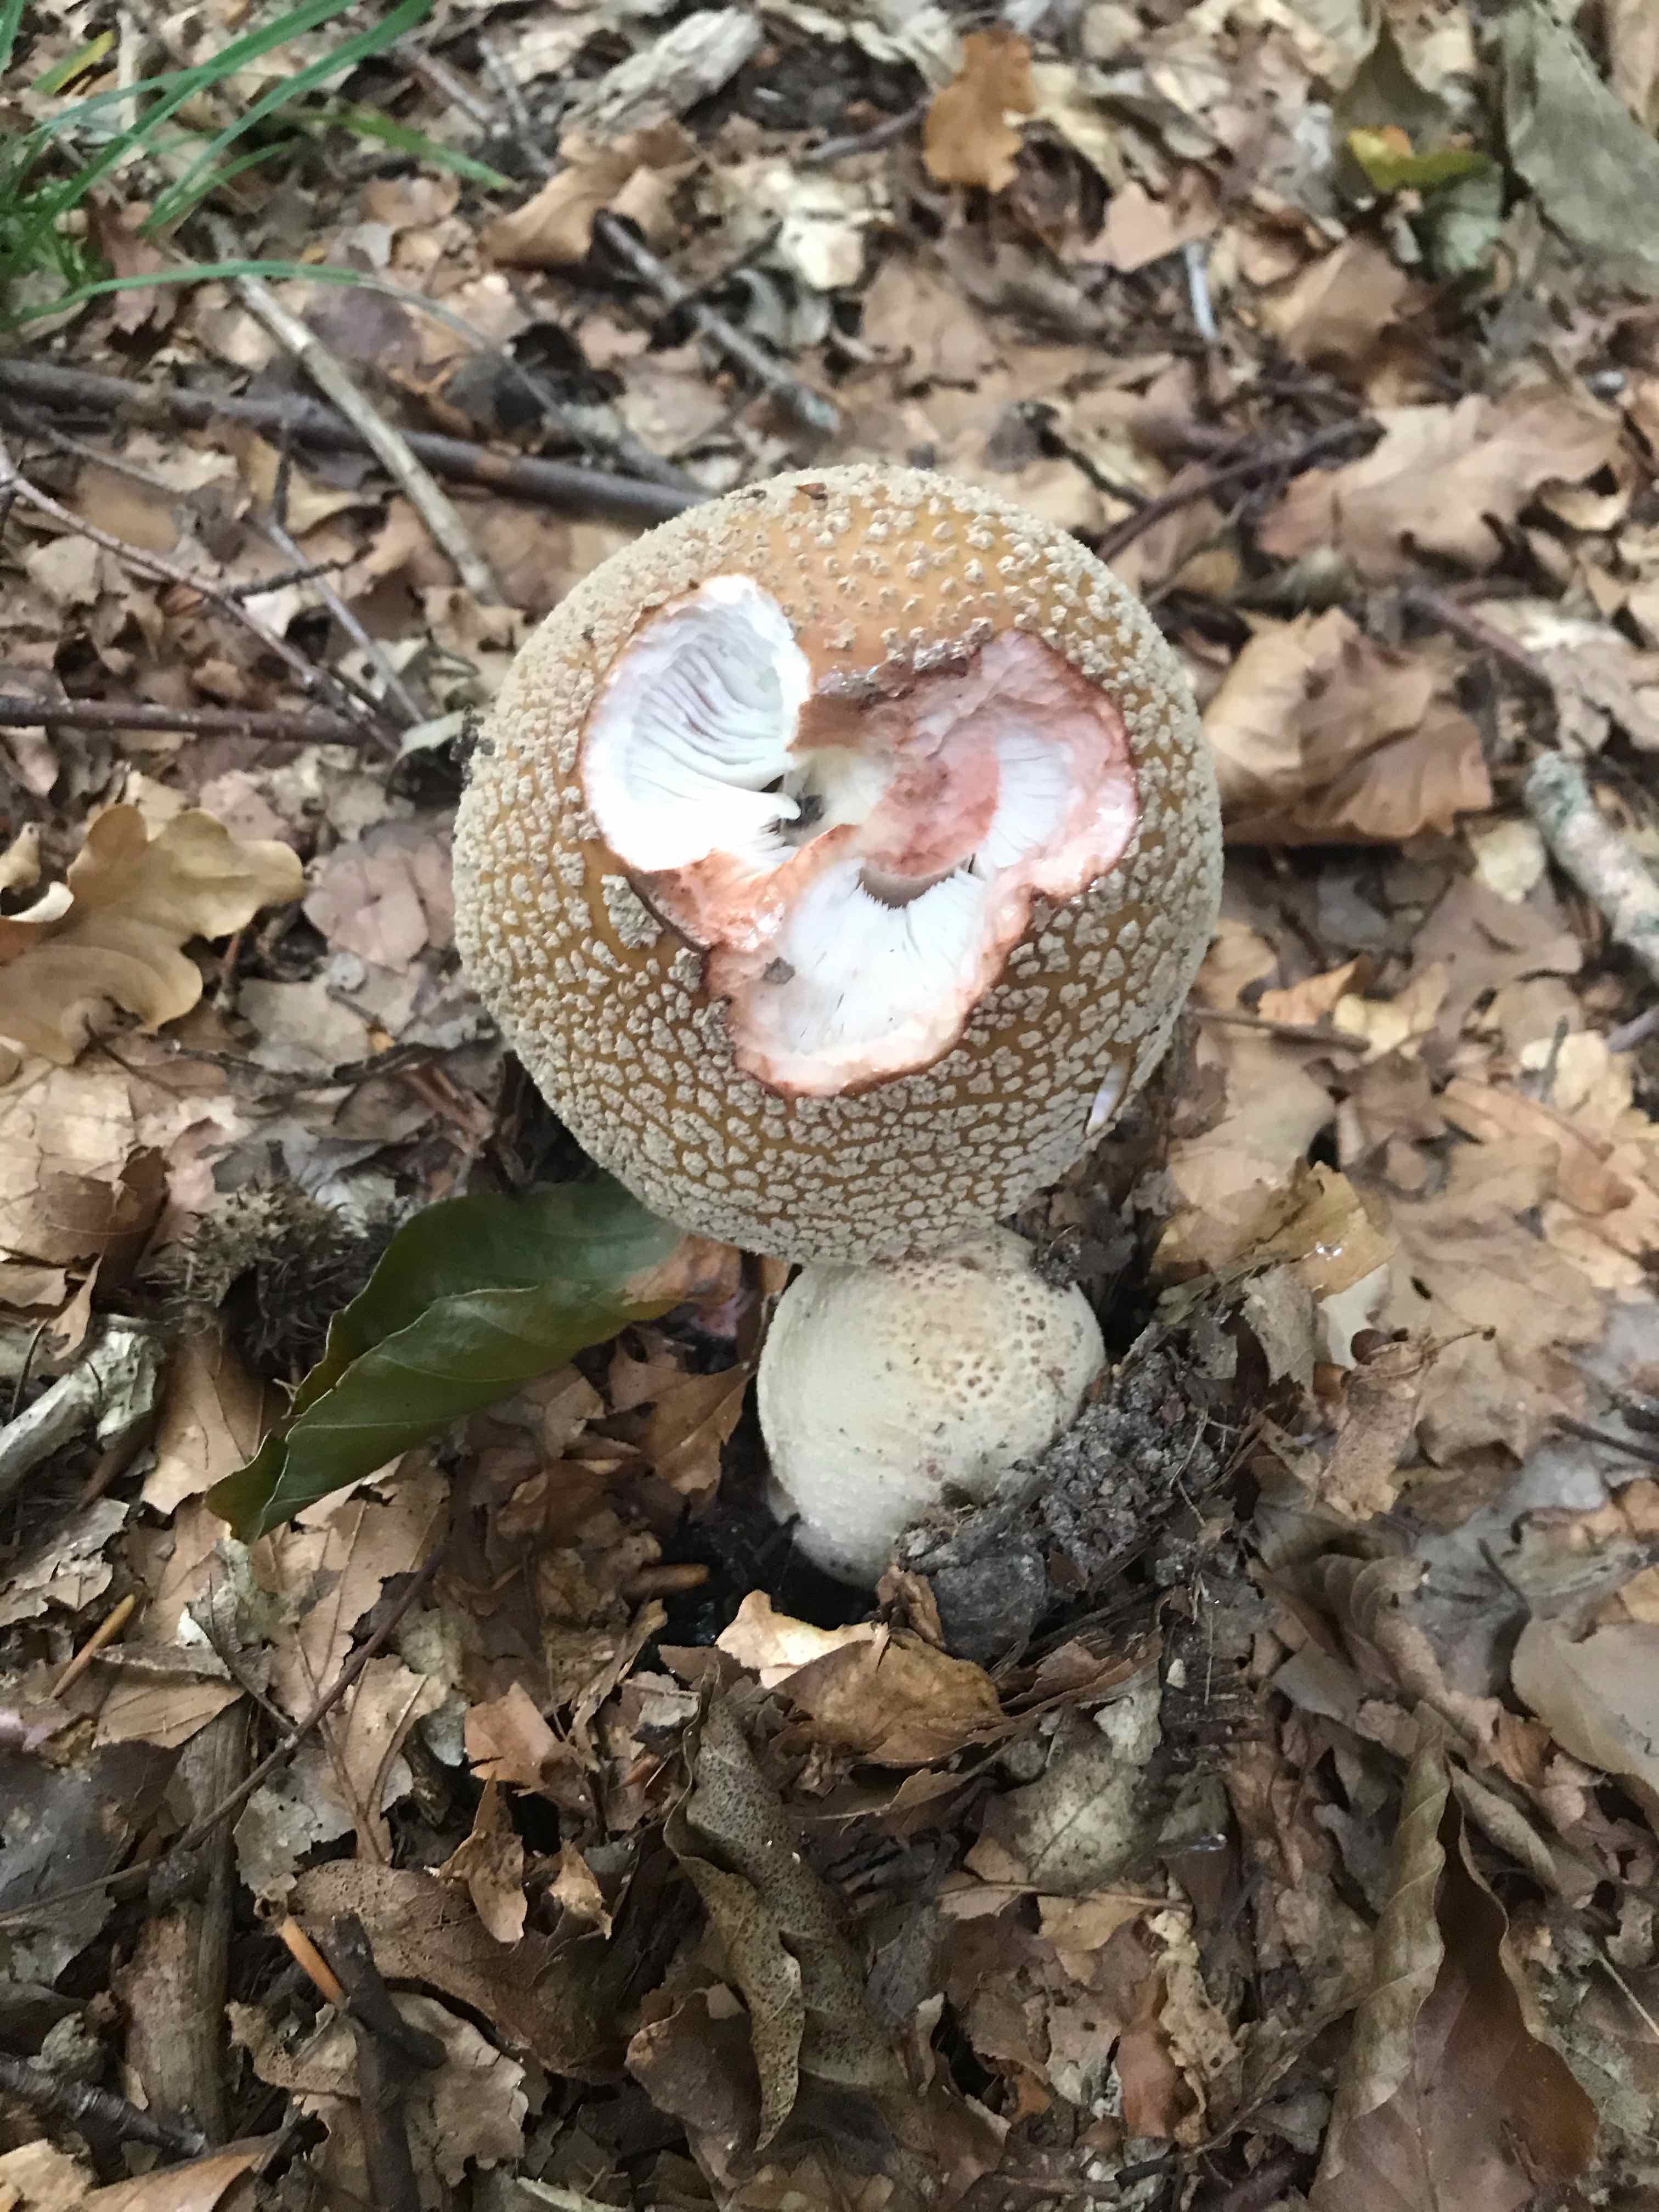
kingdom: Fungi
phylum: Basidiomycota
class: Agaricomycetes
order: Agaricales
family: Amanitaceae
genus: Amanita
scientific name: Amanita rubescens
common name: rødmende fluesvamp
